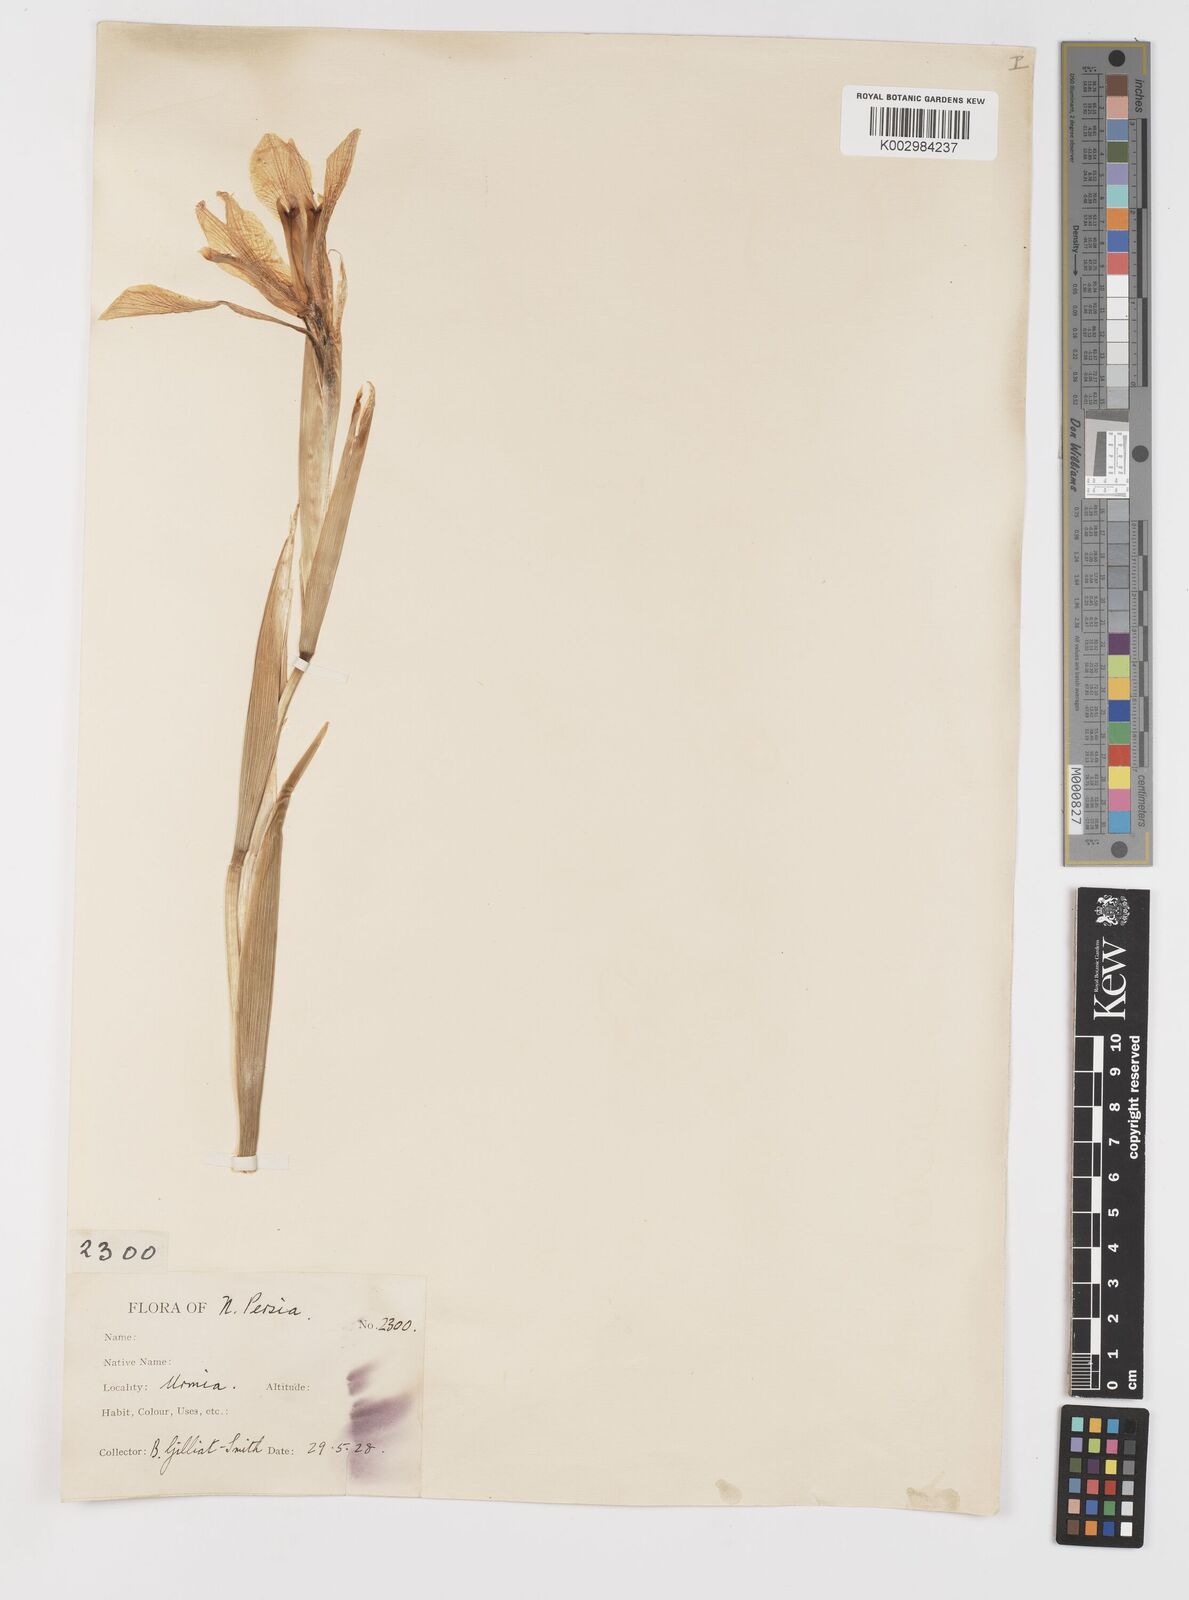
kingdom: Plantae
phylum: Tracheophyta
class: Liliopsida
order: Asparagales
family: Iridaceae
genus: Iris
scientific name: Iris spuria
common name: Blue iris
